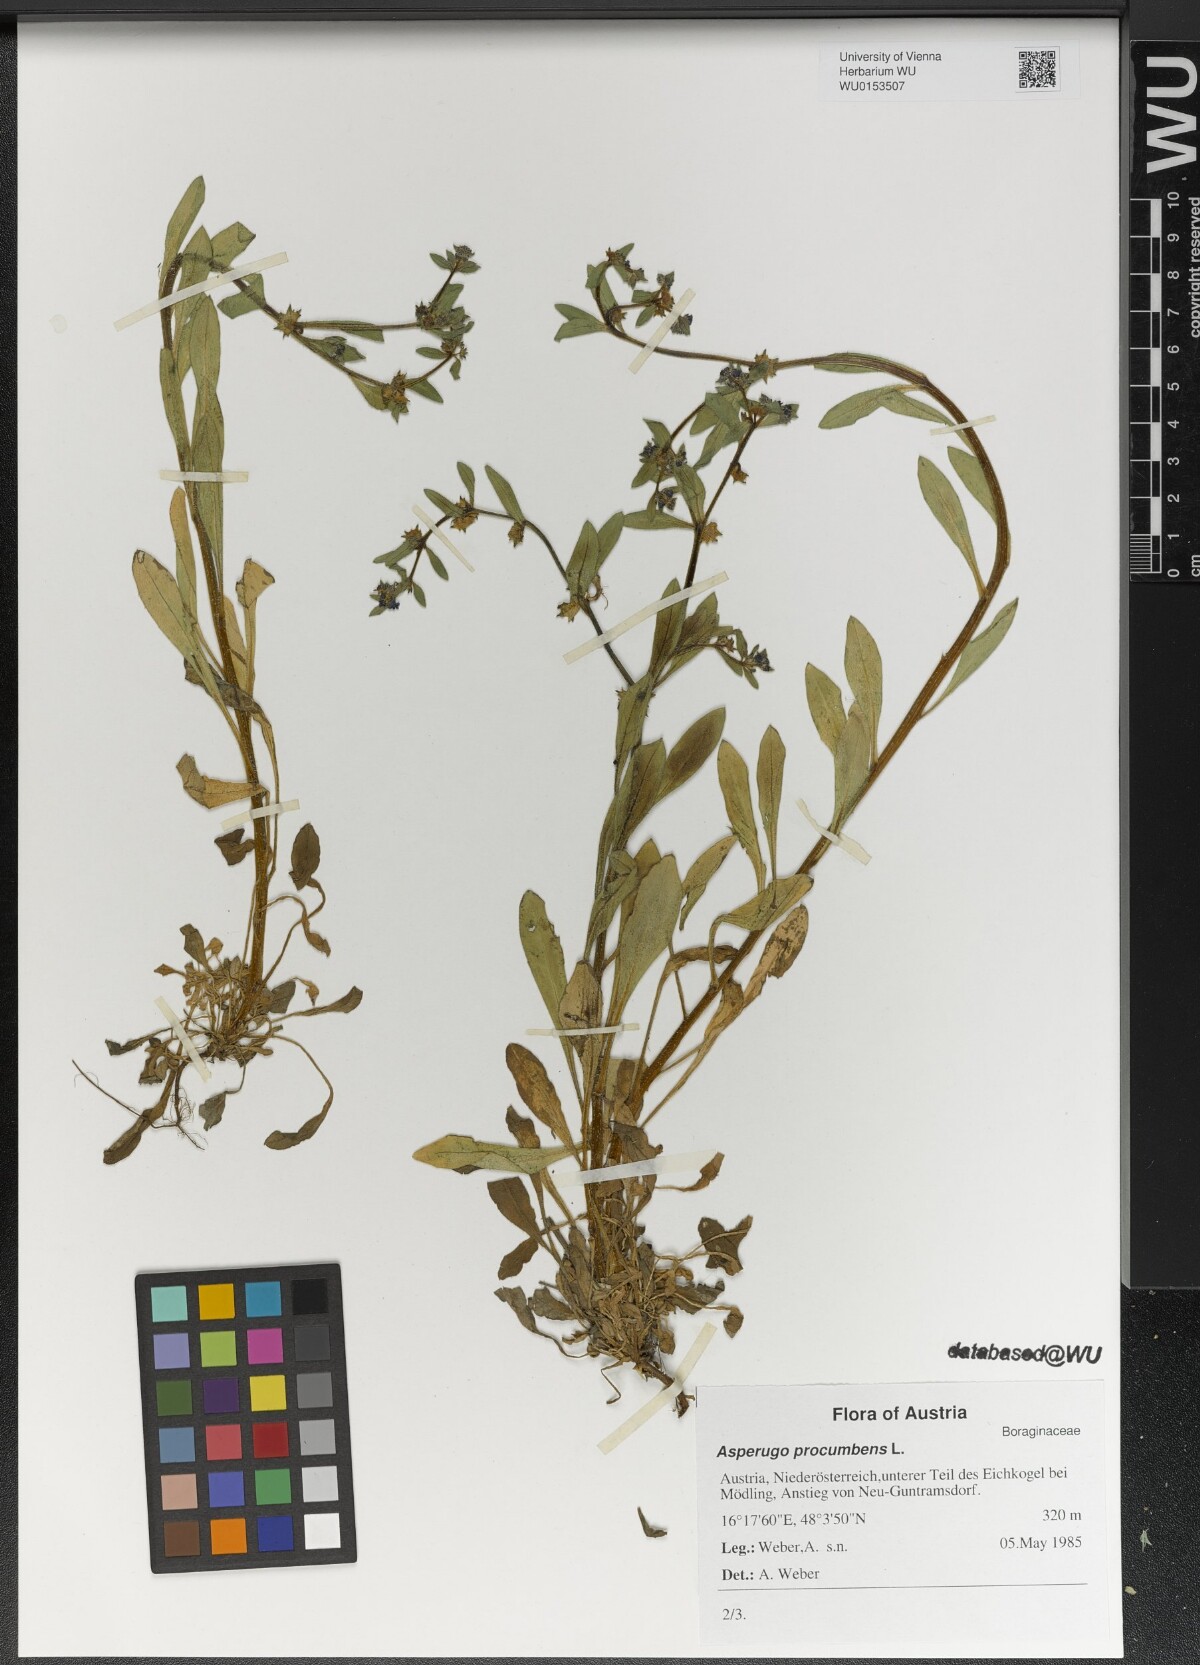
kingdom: Plantae
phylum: Tracheophyta
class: Magnoliopsida
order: Boraginales
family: Boraginaceae
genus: Asperugo
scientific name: Asperugo procumbens
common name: Madwort
